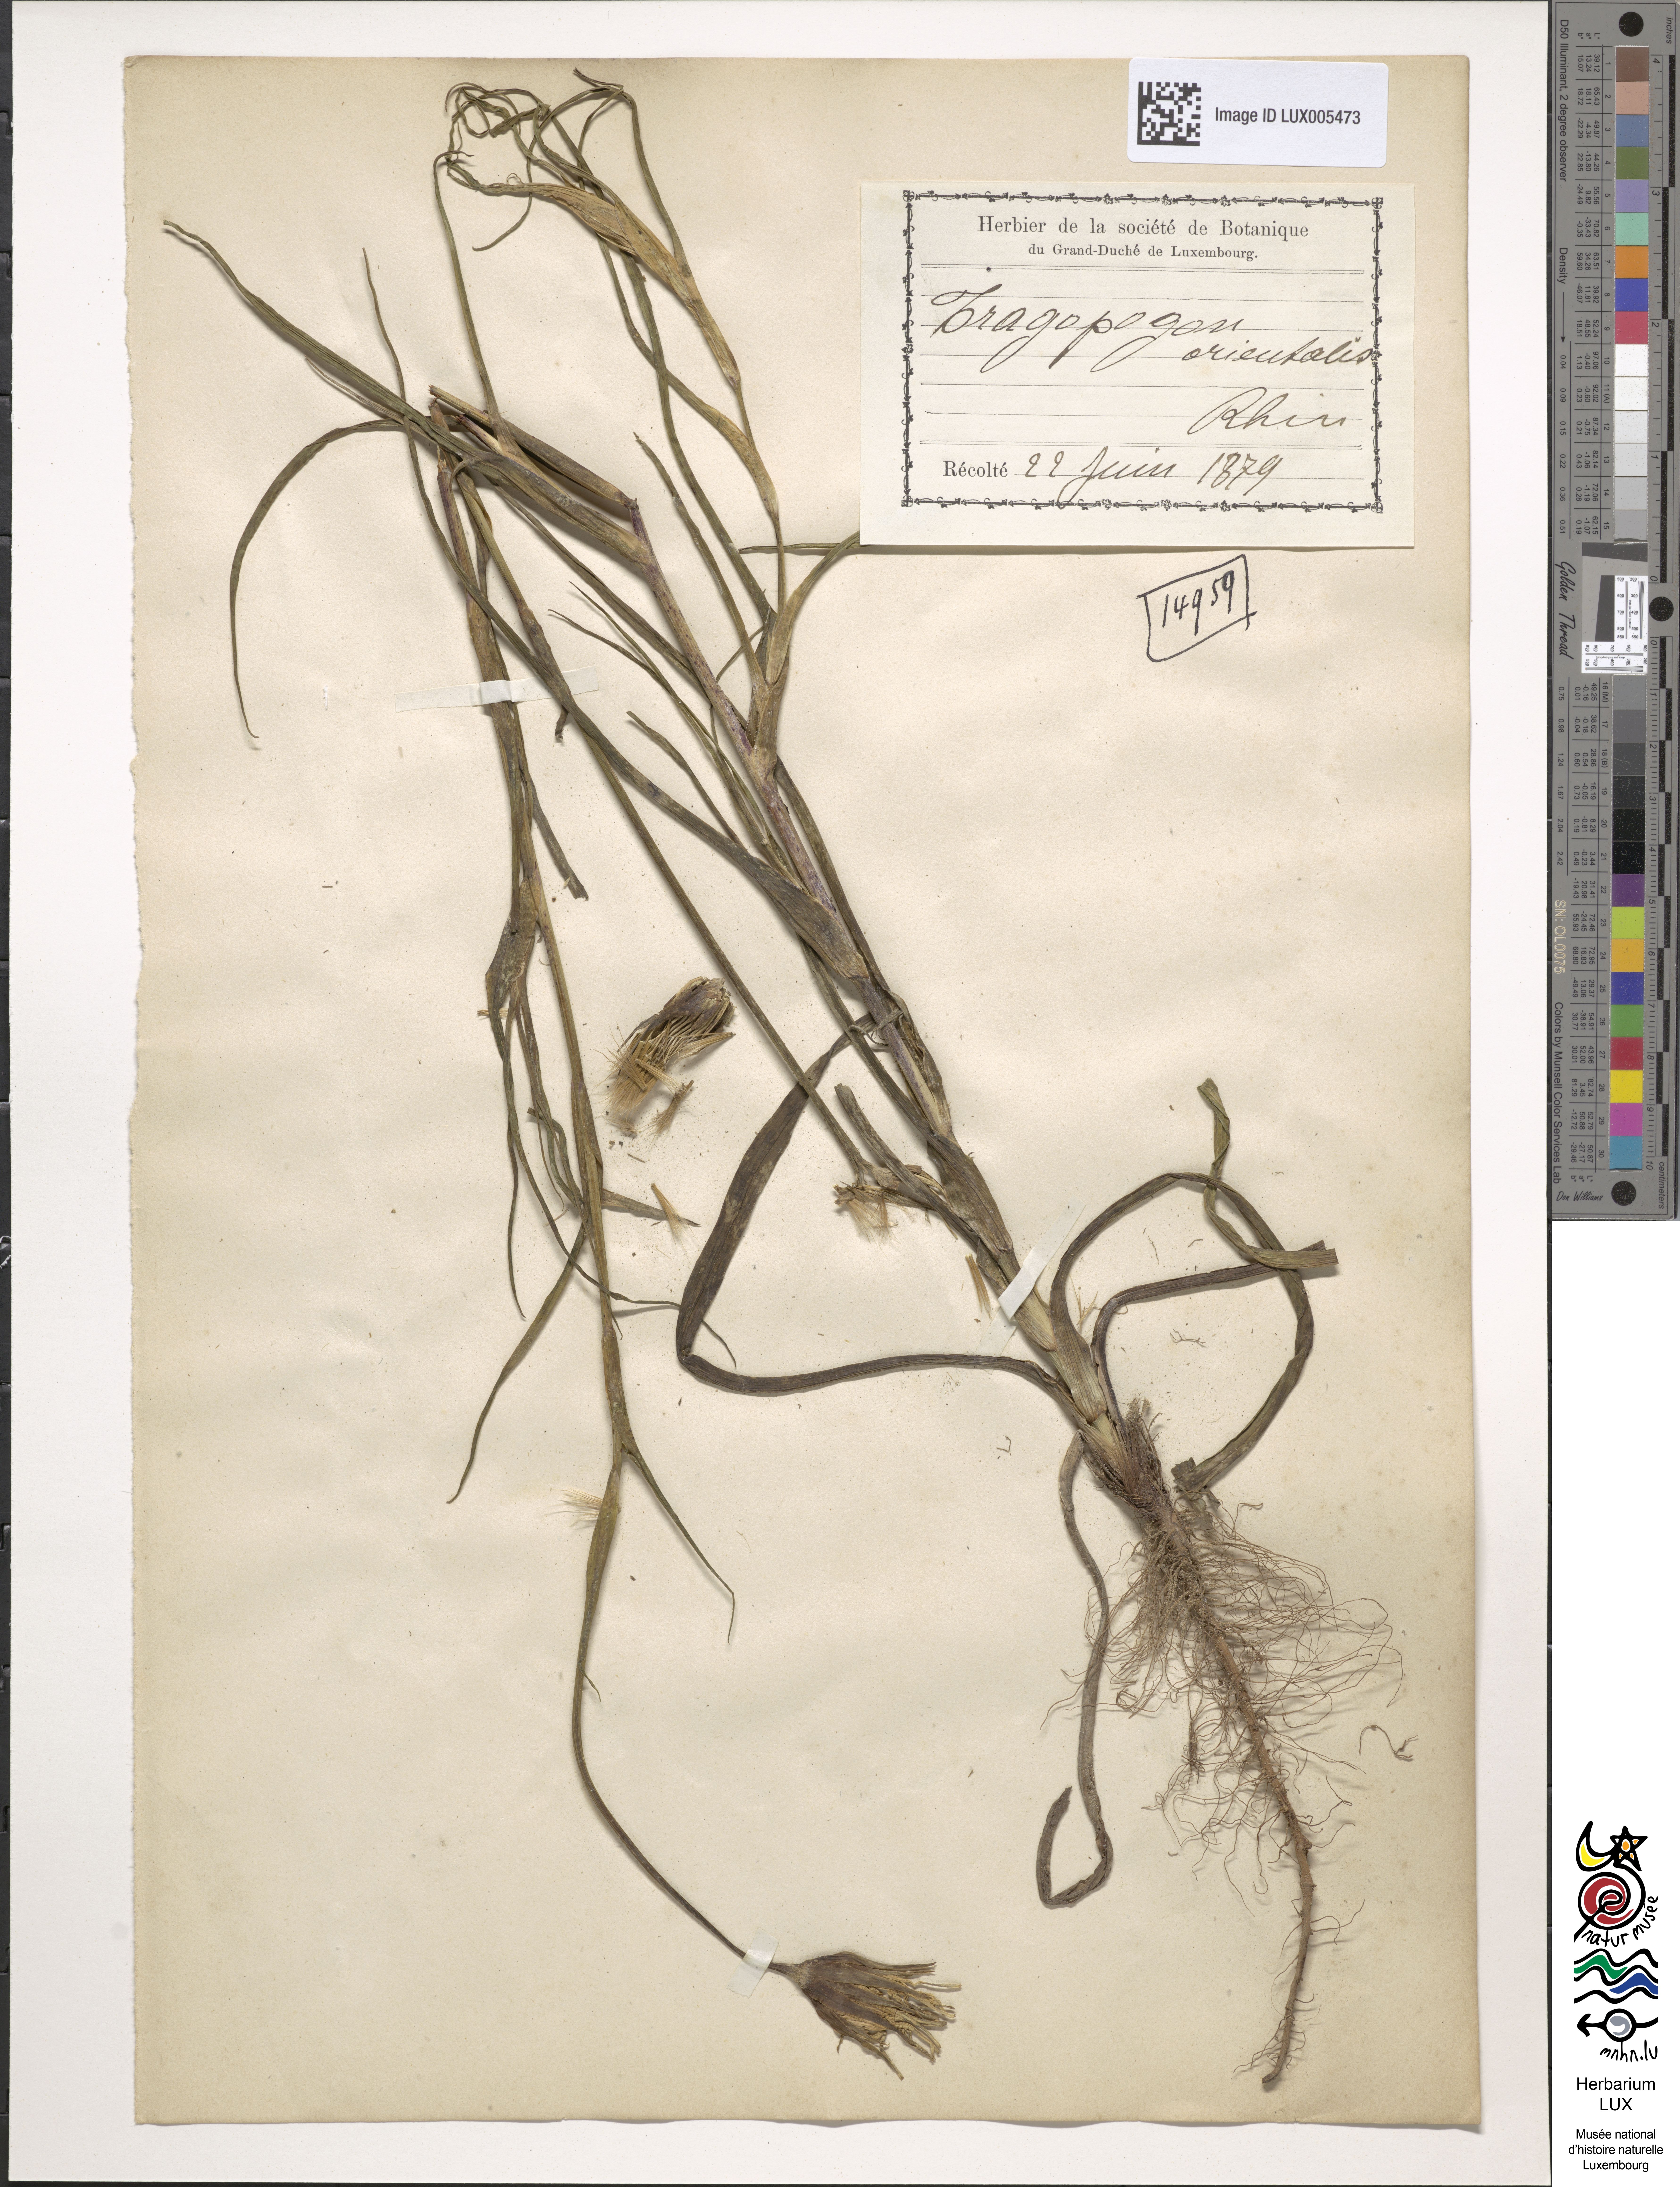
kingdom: Plantae
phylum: Tracheophyta
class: Magnoliopsida
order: Asterales
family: Asteraceae
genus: Tragopogon
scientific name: Tragopogon orientalis
